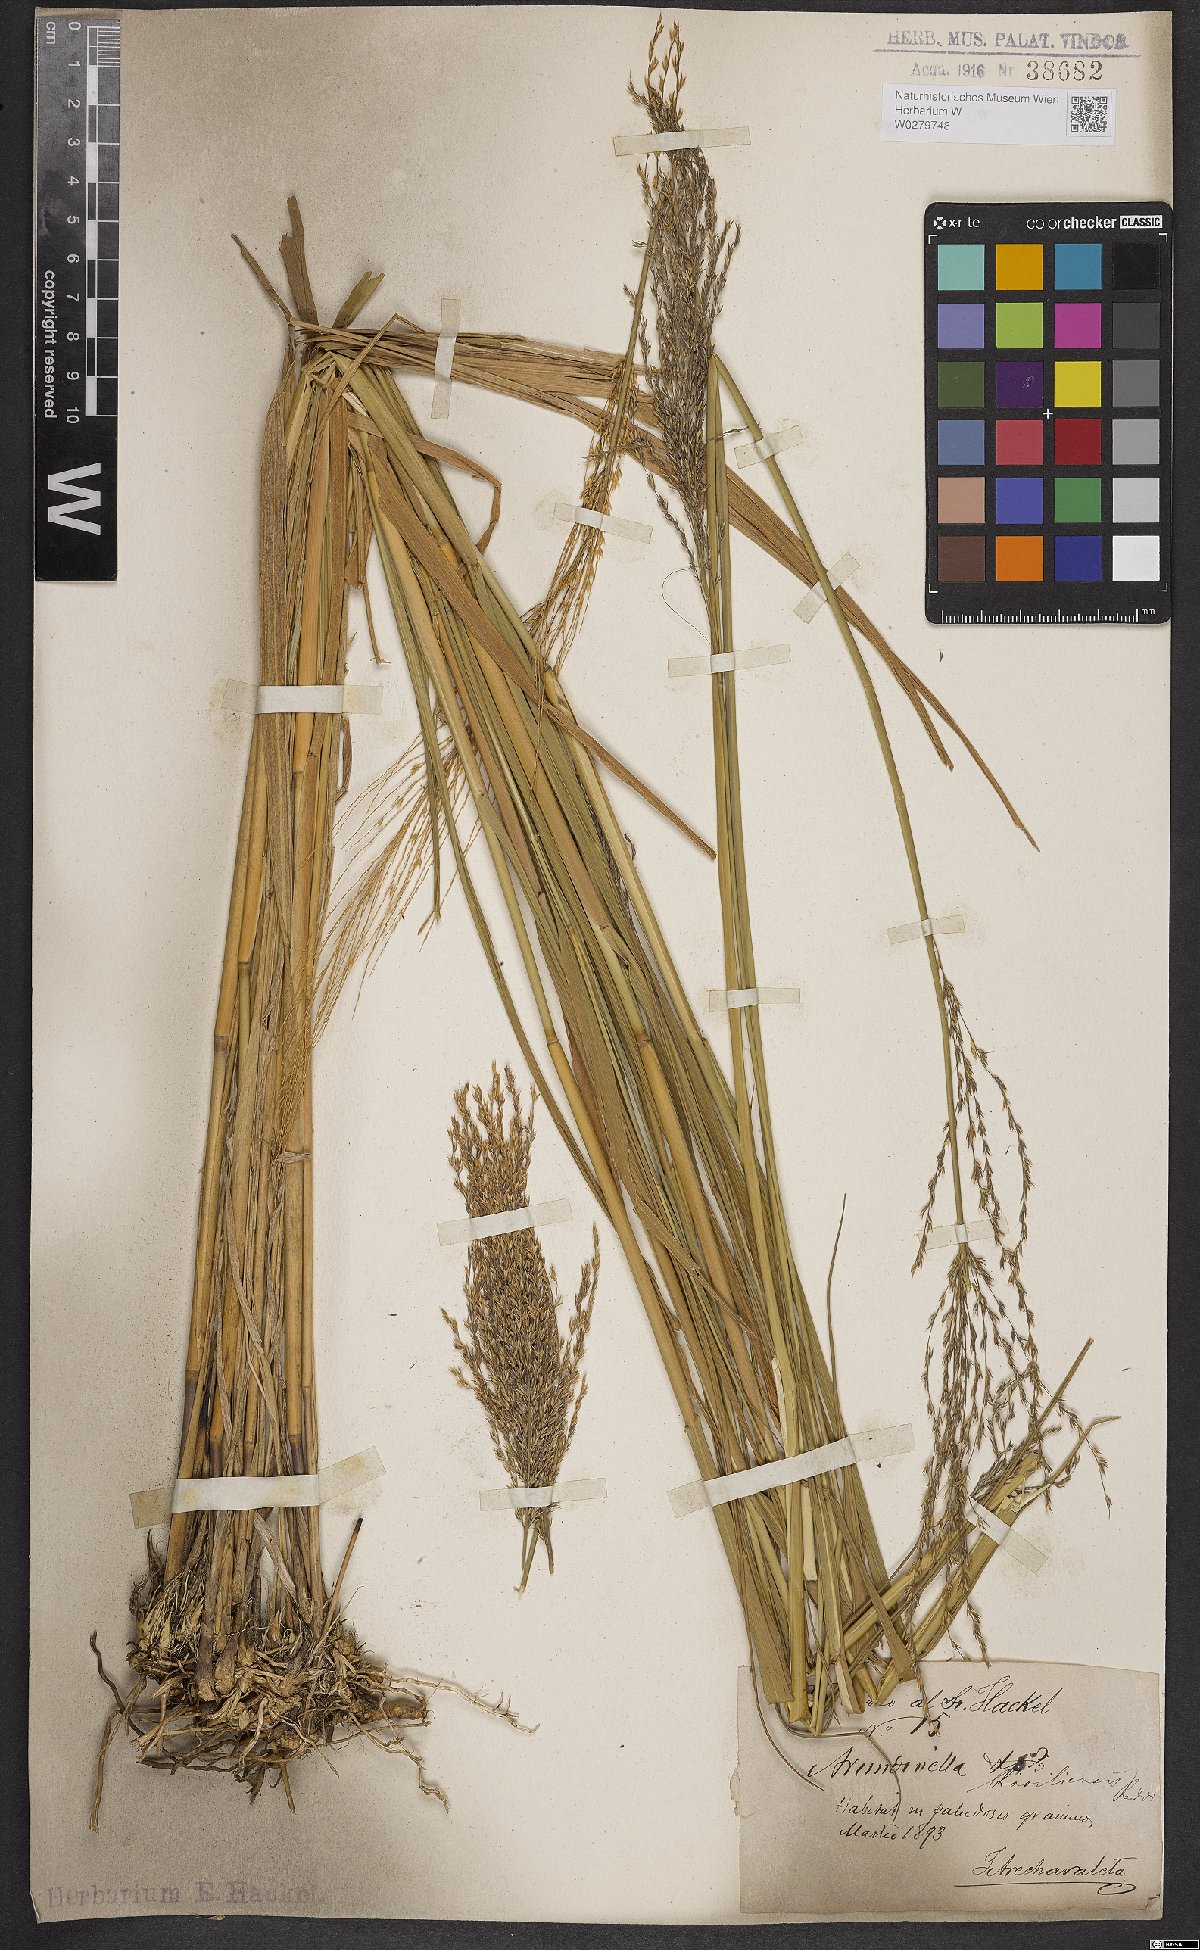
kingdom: Plantae
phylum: Tracheophyta
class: Liliopsida
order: Poales
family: Poaceae
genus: Arundinella
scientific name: Arundinella hispida
